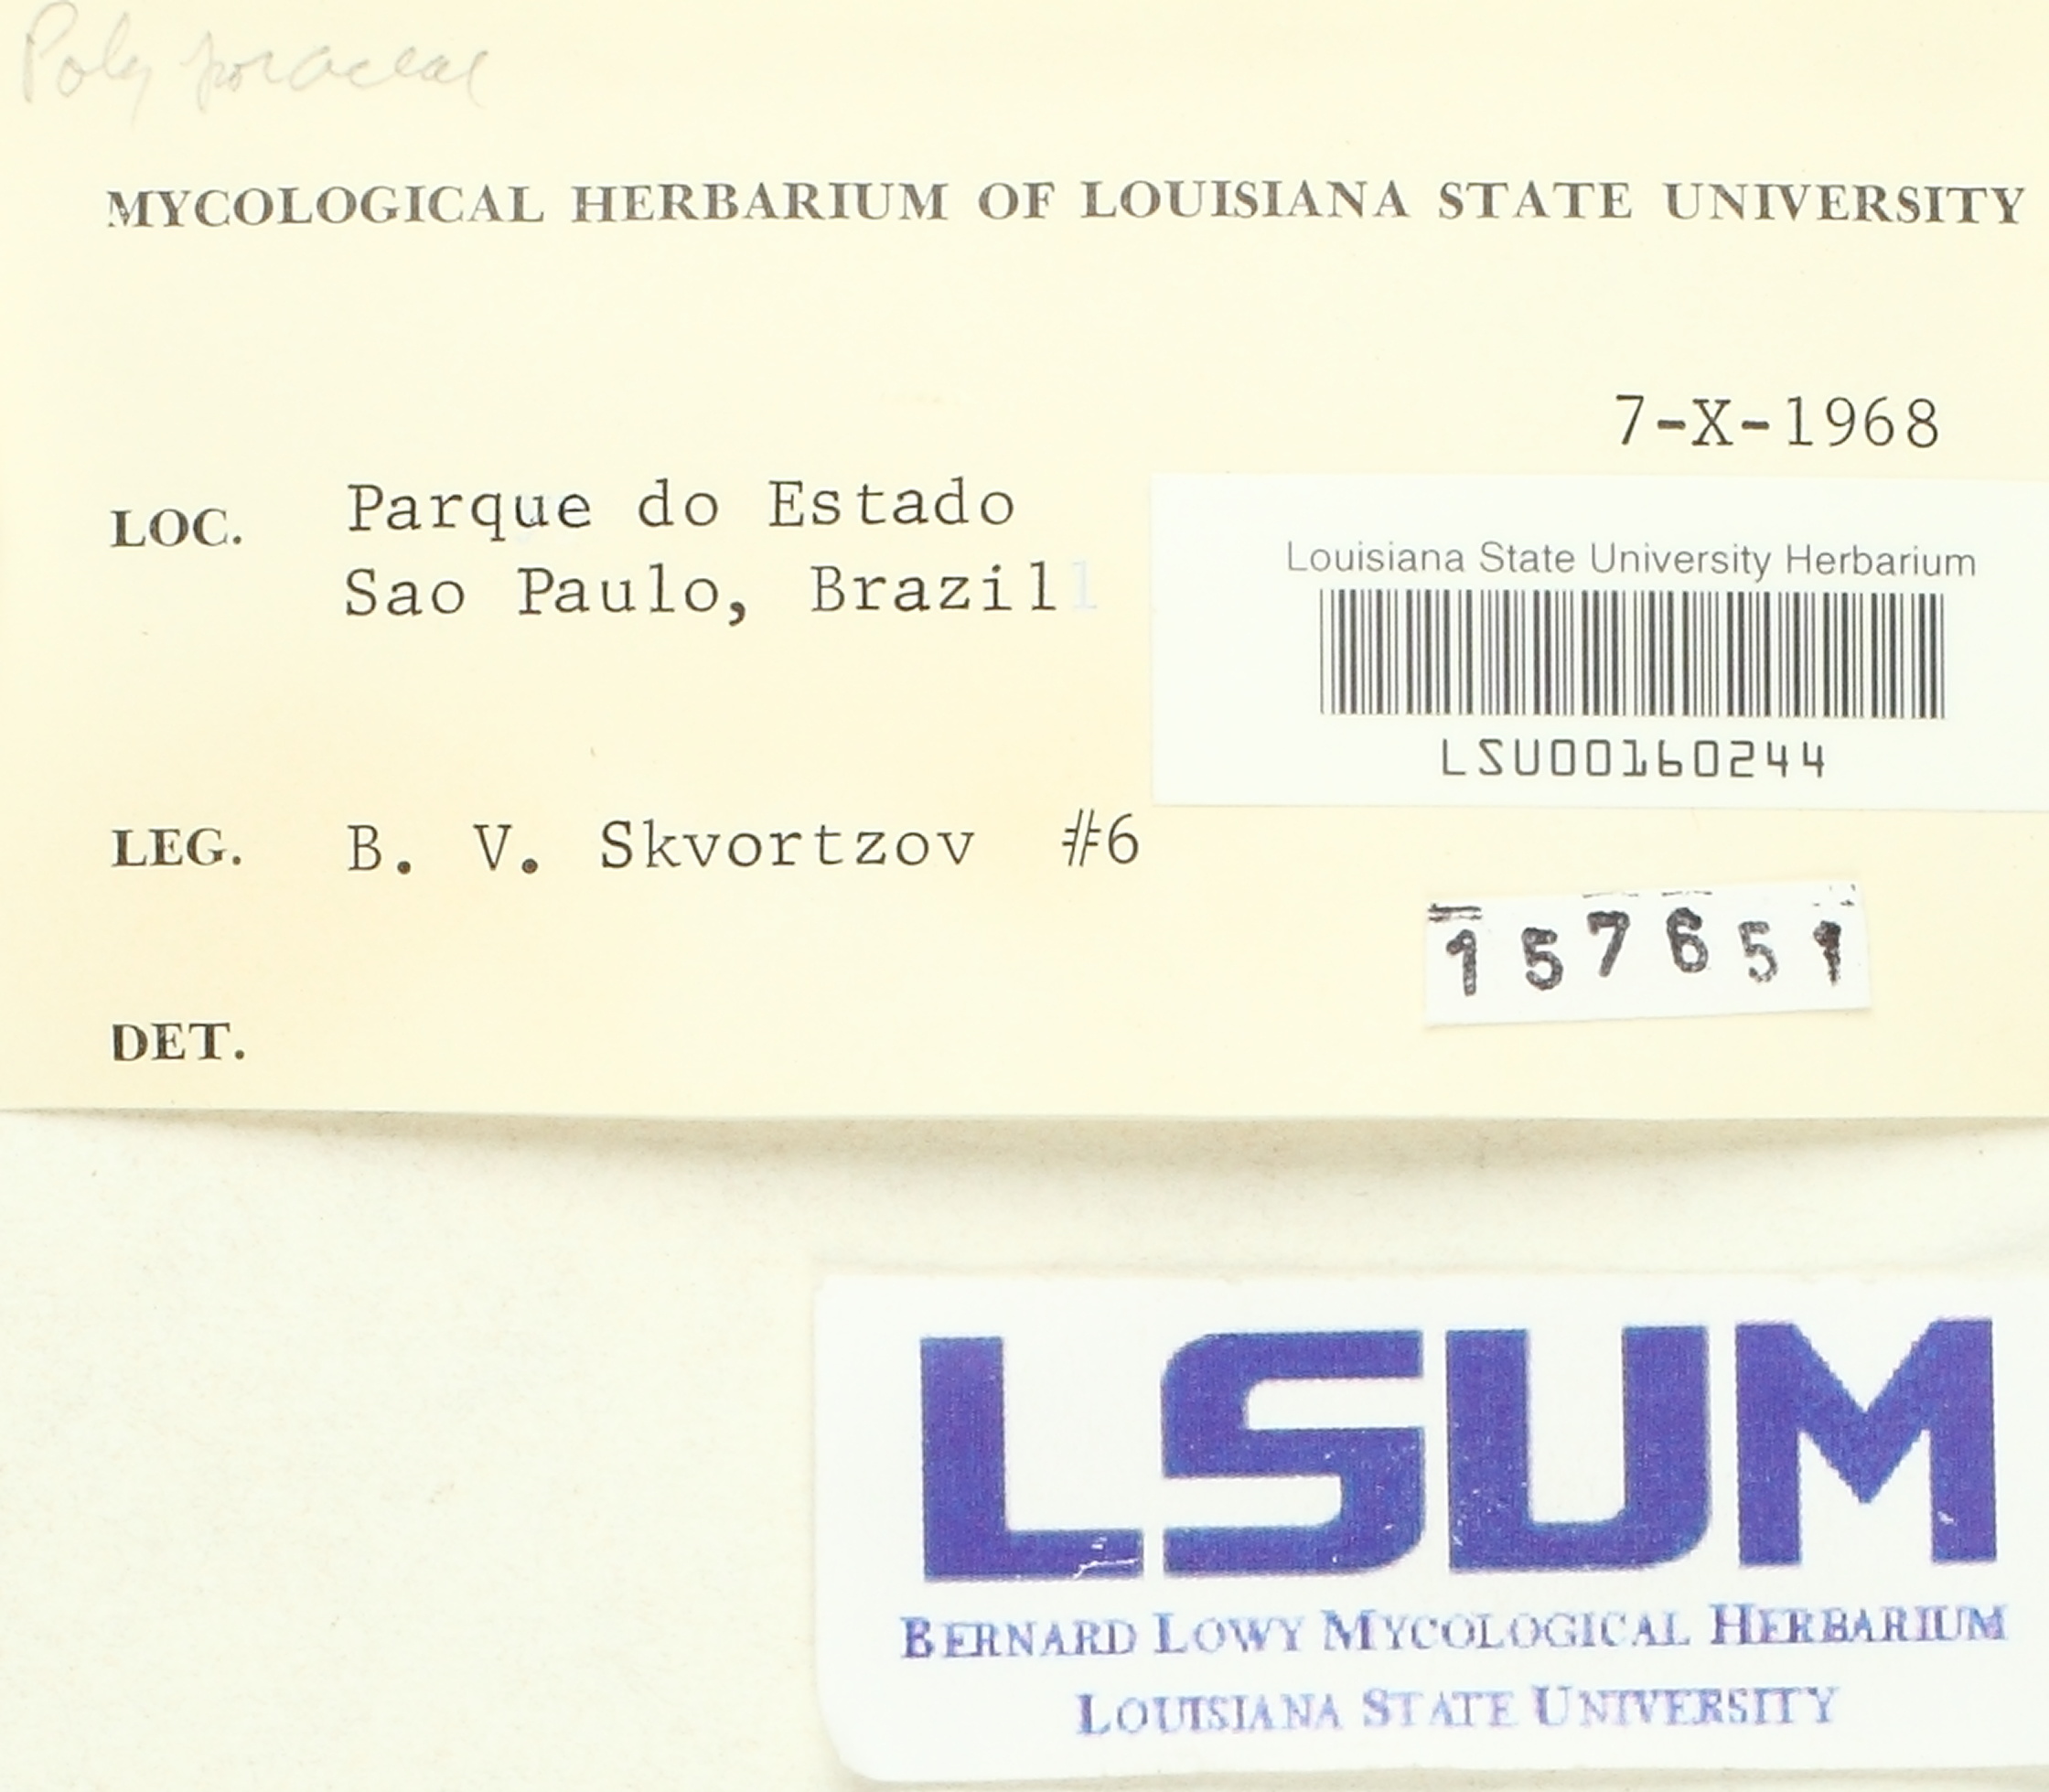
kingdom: Fungi
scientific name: Fungi
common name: Fungi
